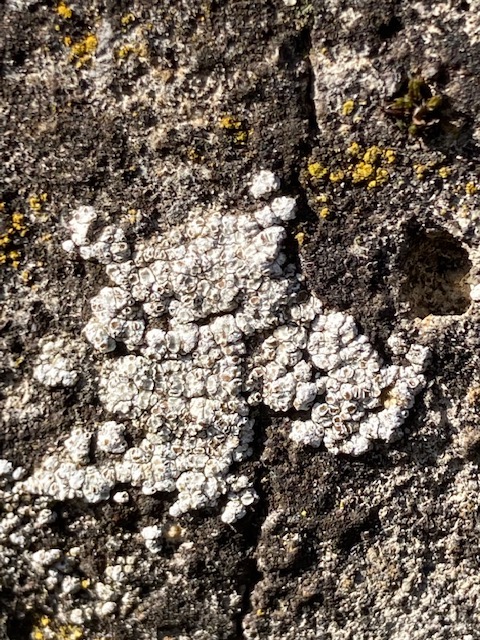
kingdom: Fungi
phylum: Ascomycota
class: Lecanoromycetes
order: Lecanorales
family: Lecanoraceae
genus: Polyozosia
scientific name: Polyozosia albescens
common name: cement-kantskivelav
